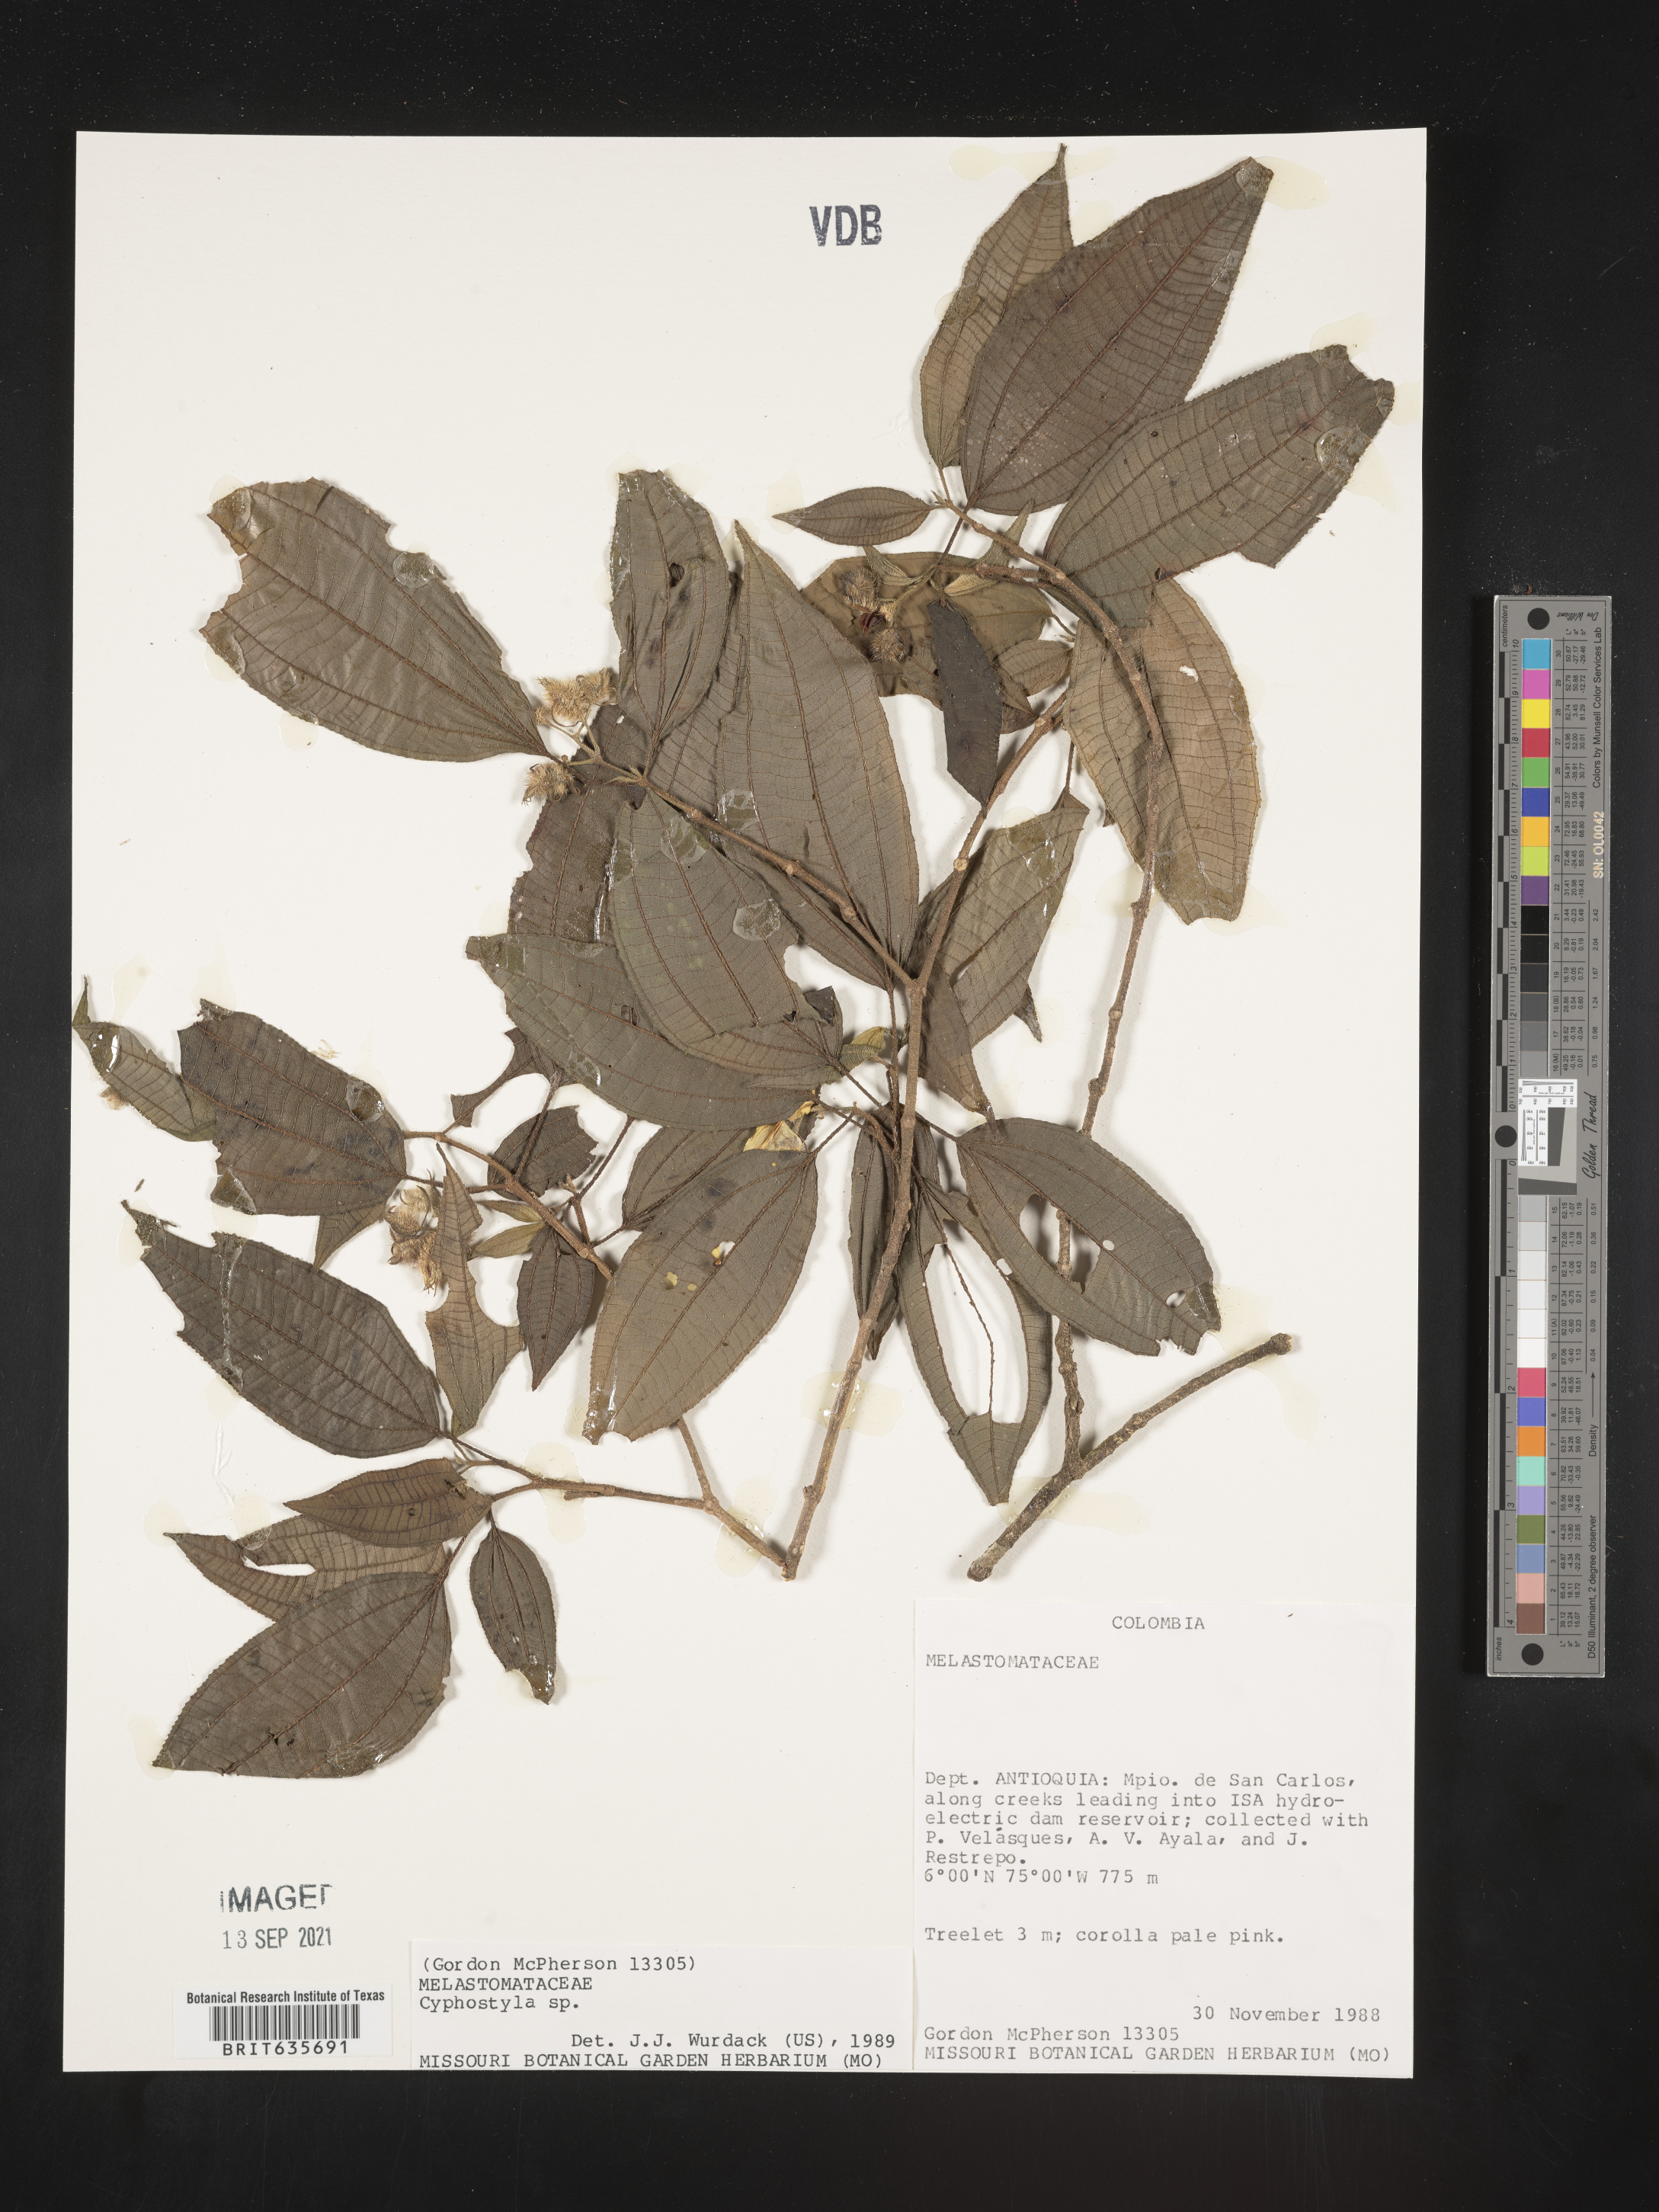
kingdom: Plantae
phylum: Tracheophyta
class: Magnoliopsida
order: Myrtales
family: Melastomataceae
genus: Allomaieta
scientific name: Allomaieta
